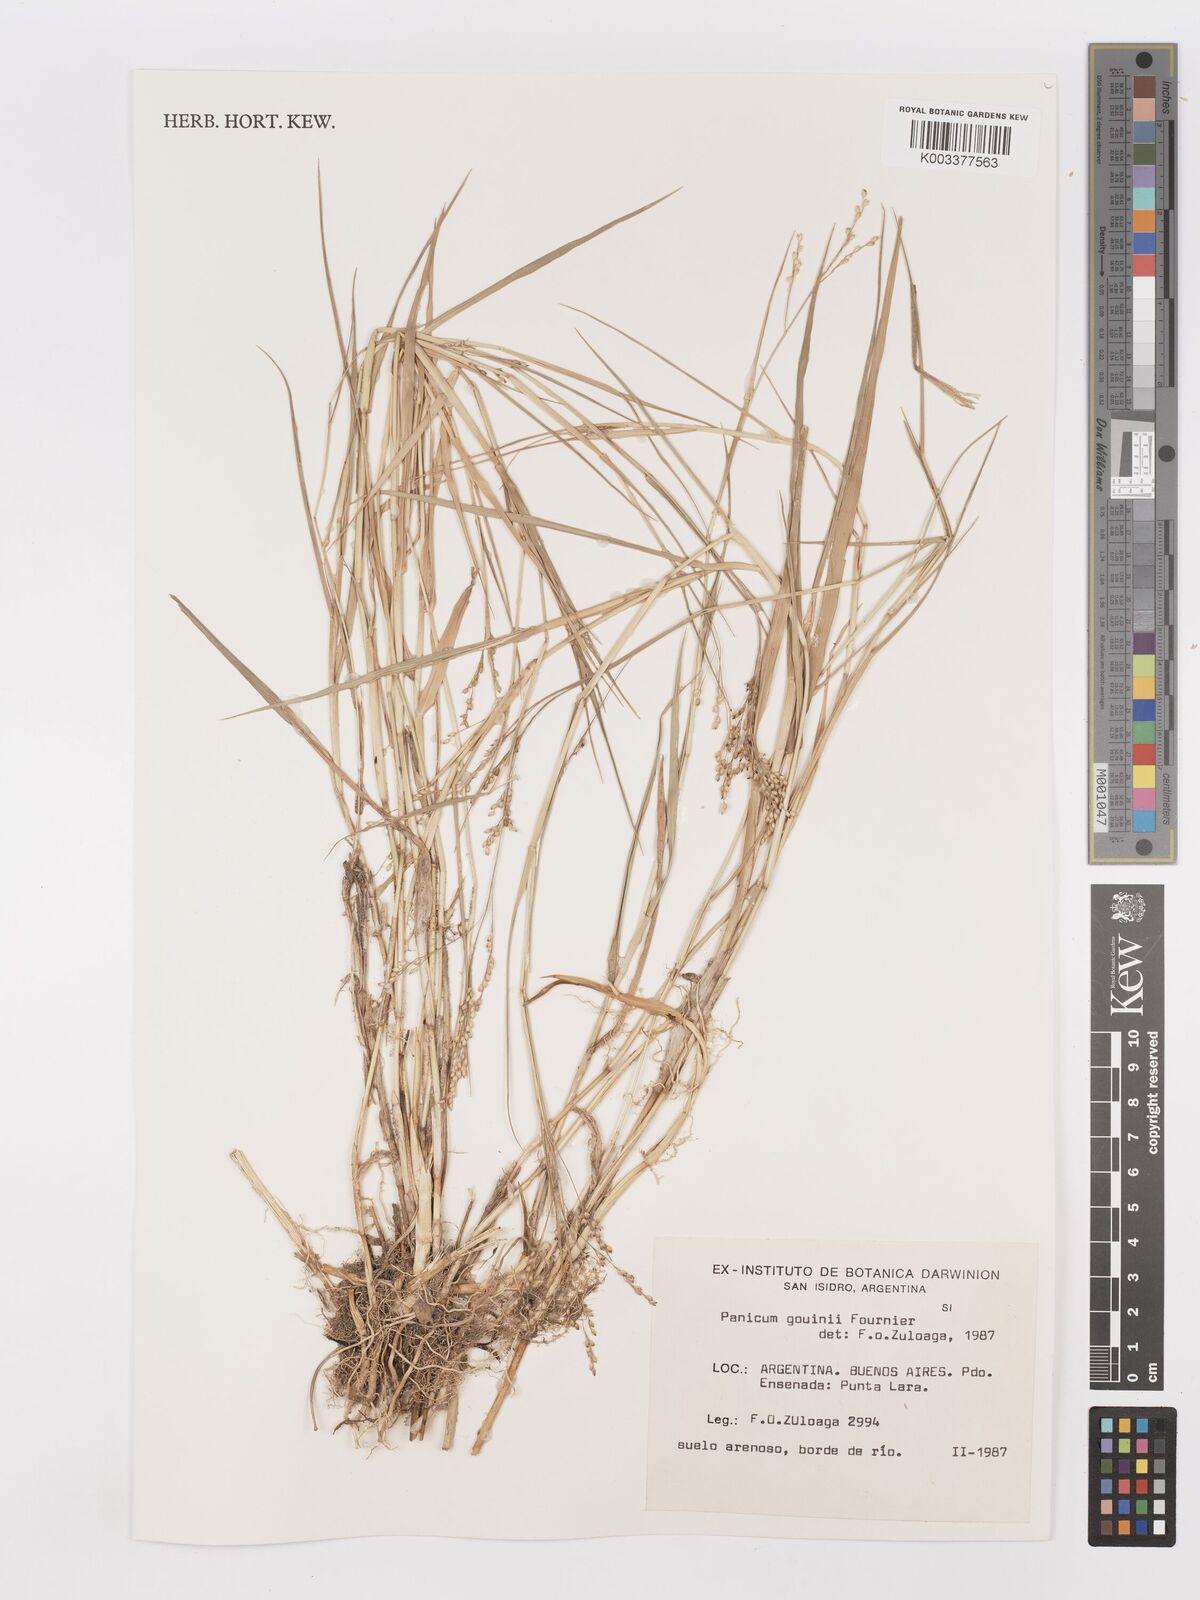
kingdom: Plantae
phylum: Tracheophyta
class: Liliopsida
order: Poales
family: Poaceae
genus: Urochloa
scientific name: Urochloa rudis
